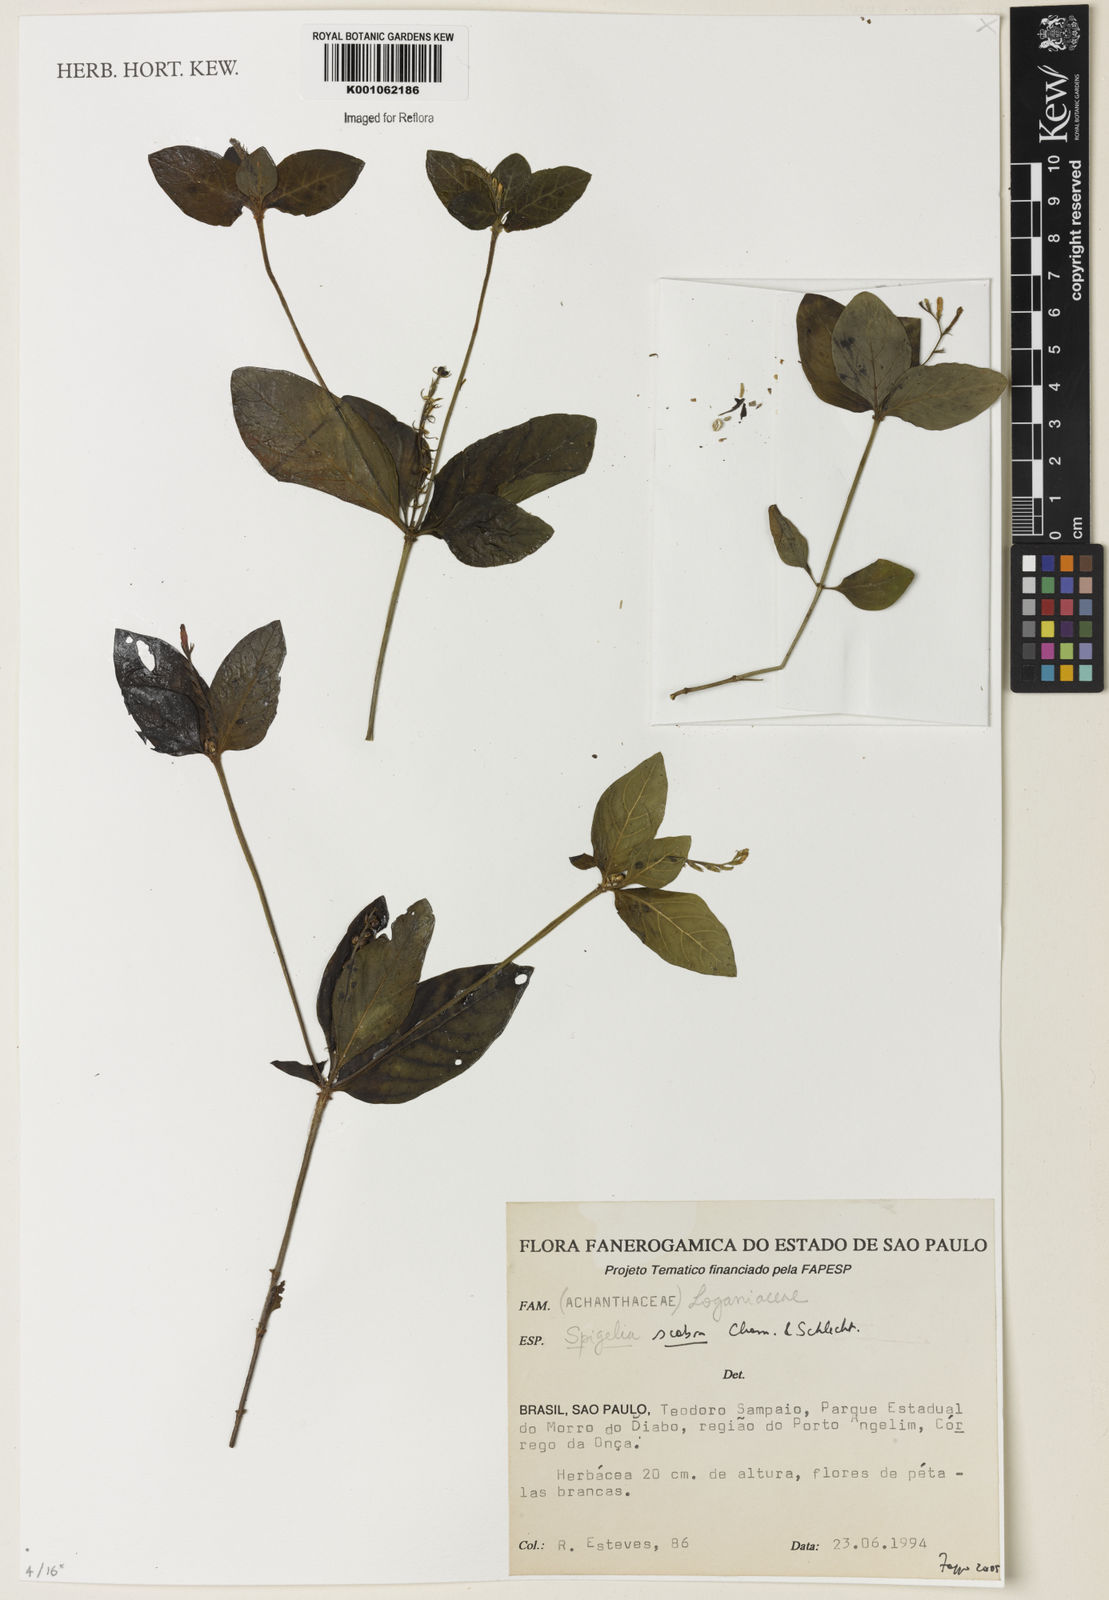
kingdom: Plantae
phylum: Tracheophyta
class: Magnoliopsida
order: Gentianales
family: Loganiaceae
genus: Spigelia
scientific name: Spigelia humboldtiana
